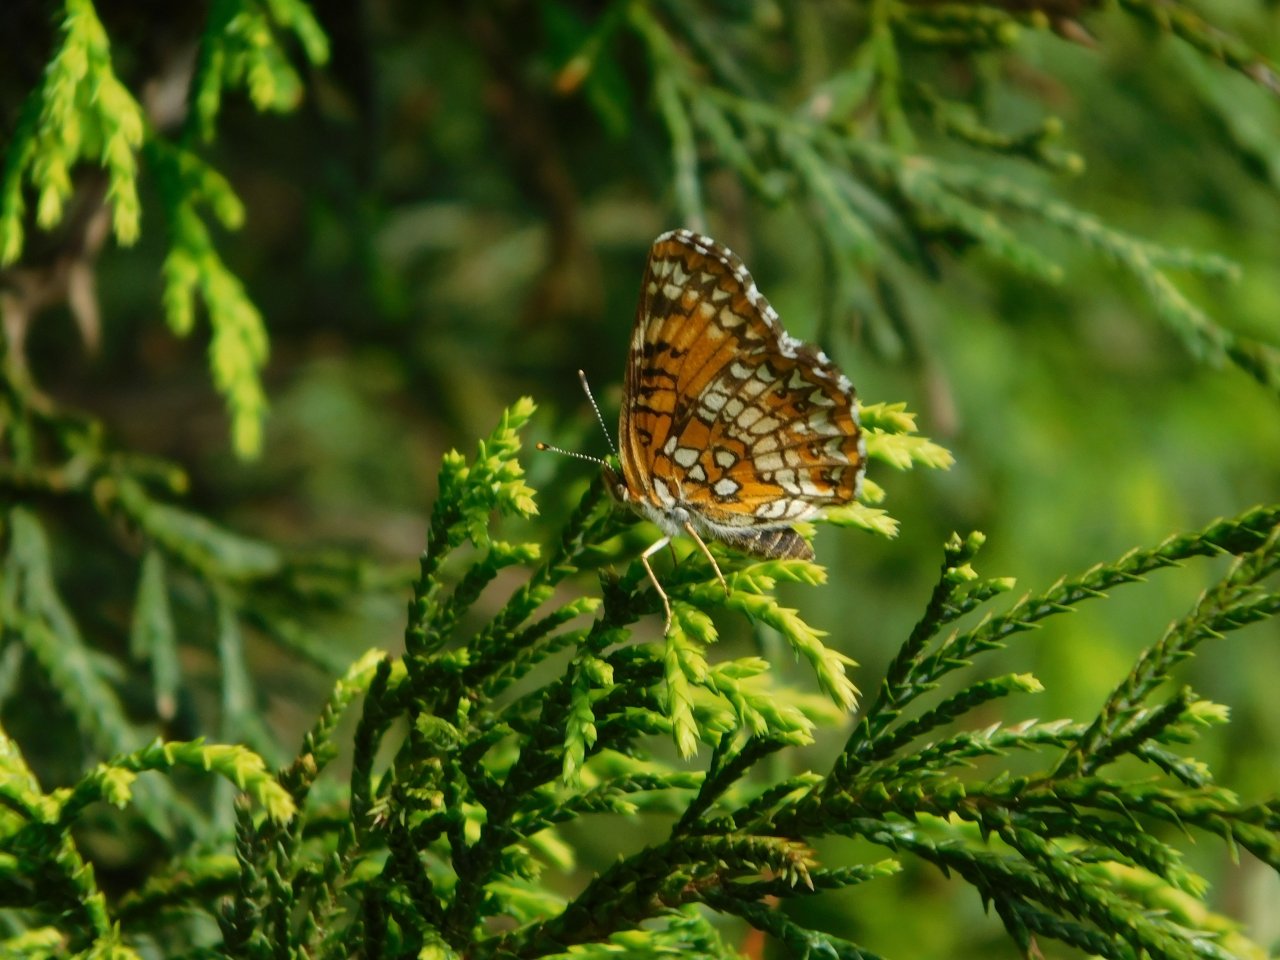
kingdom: Animalia
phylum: Arthropoda
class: Insecta
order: Lepidoptera
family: Nymphalidae
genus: Chlosyne
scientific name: Chlosyne harrisii
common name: Harris's Checkerspot
